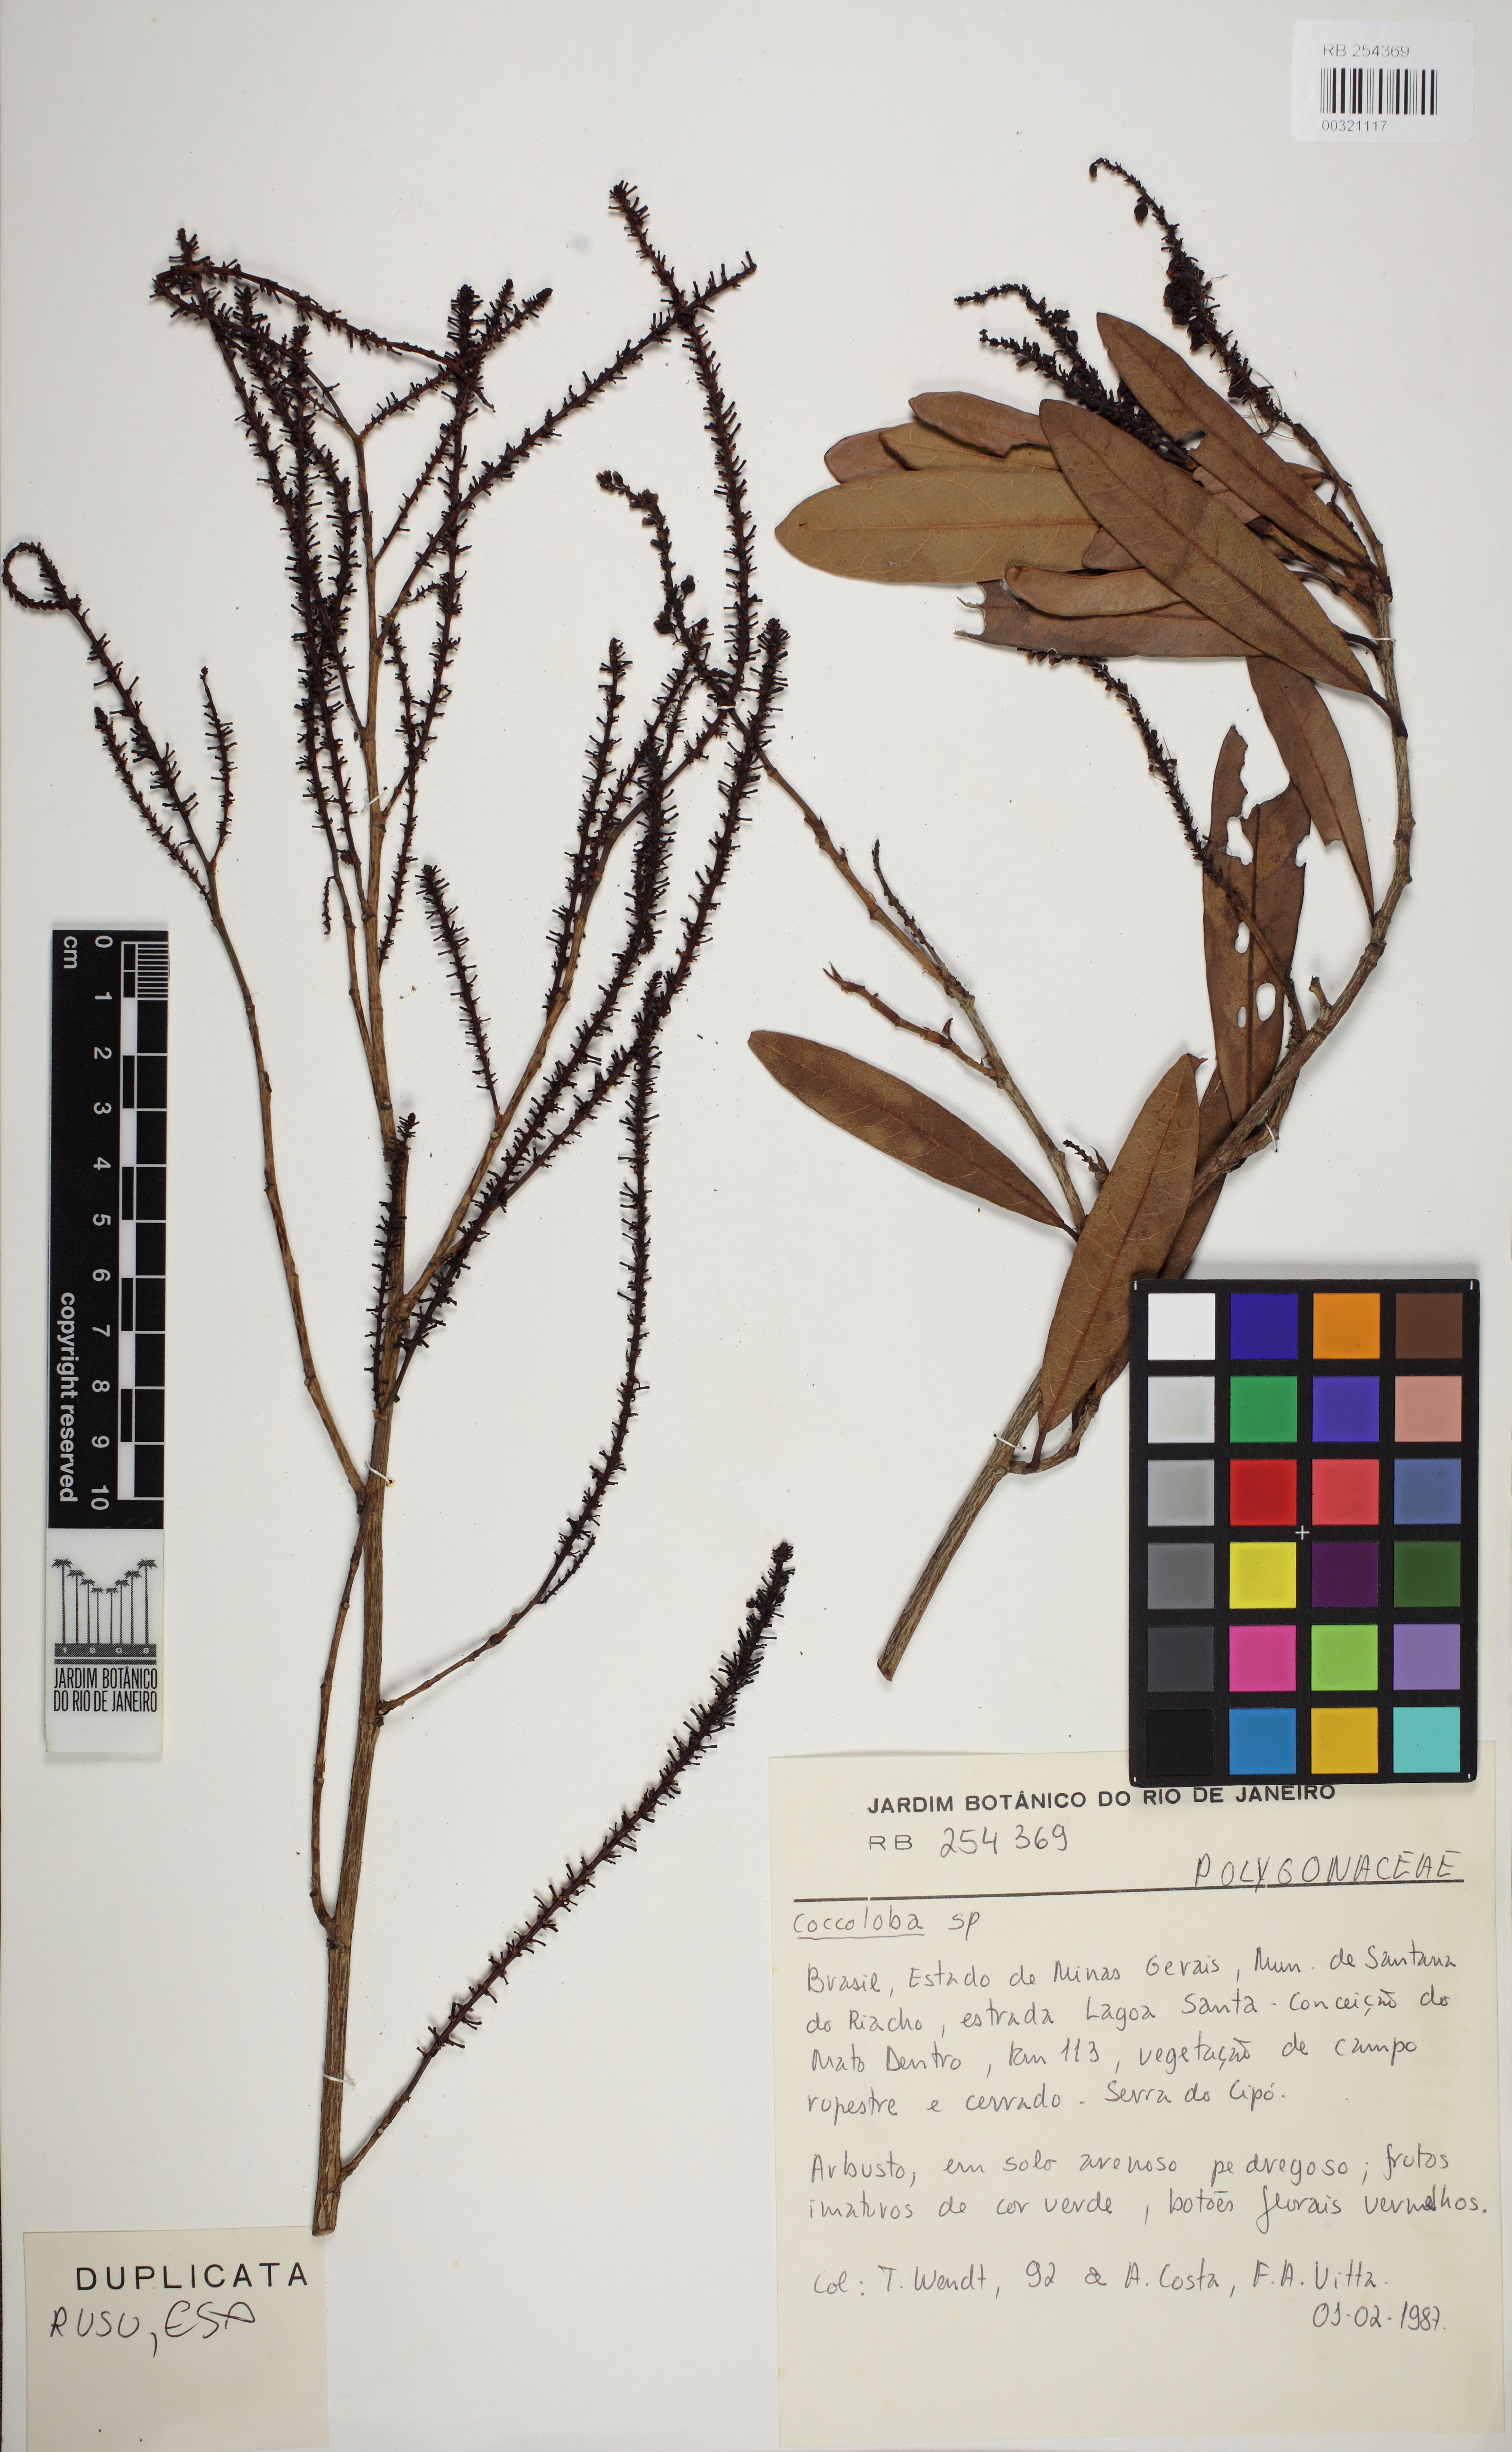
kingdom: Plantae
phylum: Tracheophyta
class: Magnoliopsida
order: Caryophyllales
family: Polygonaceae
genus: Coccoloba
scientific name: Coccoloba
